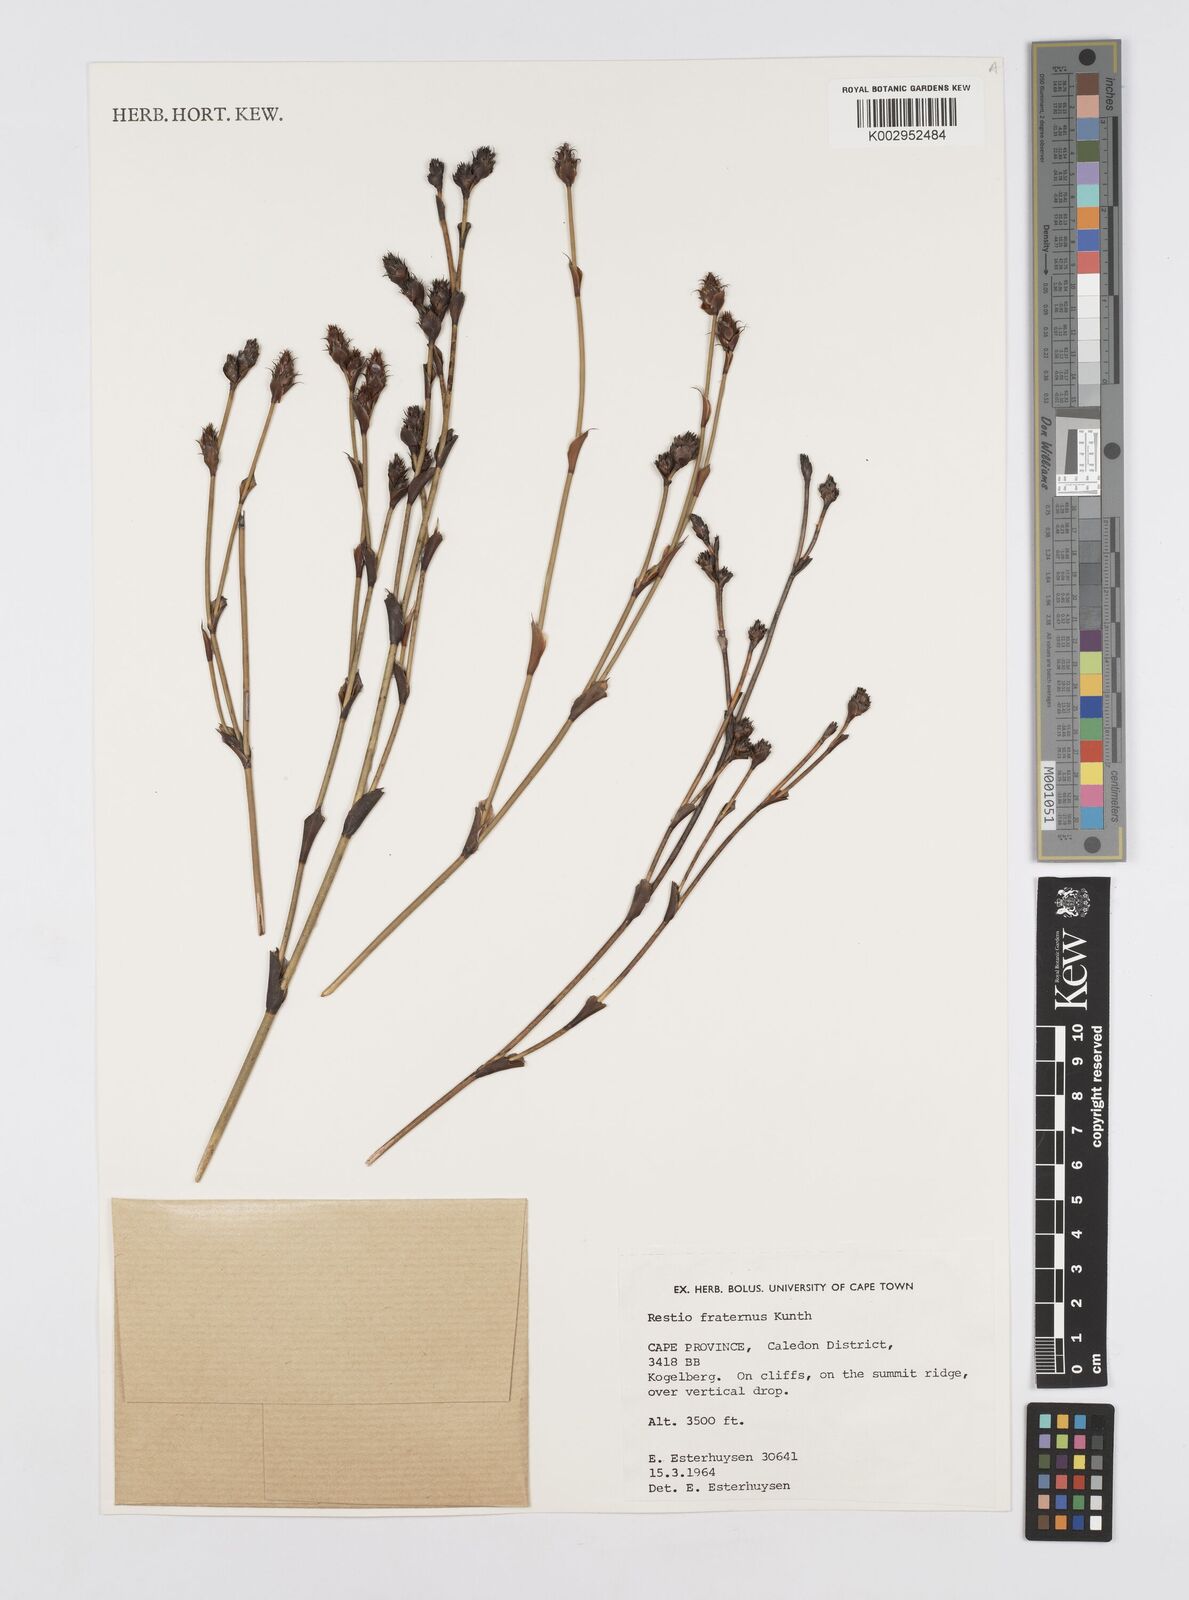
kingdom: Plantae
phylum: Tracheophyta
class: Liliopsida
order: Poales
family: Restionaceae
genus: Restio
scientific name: Restio fraternus
